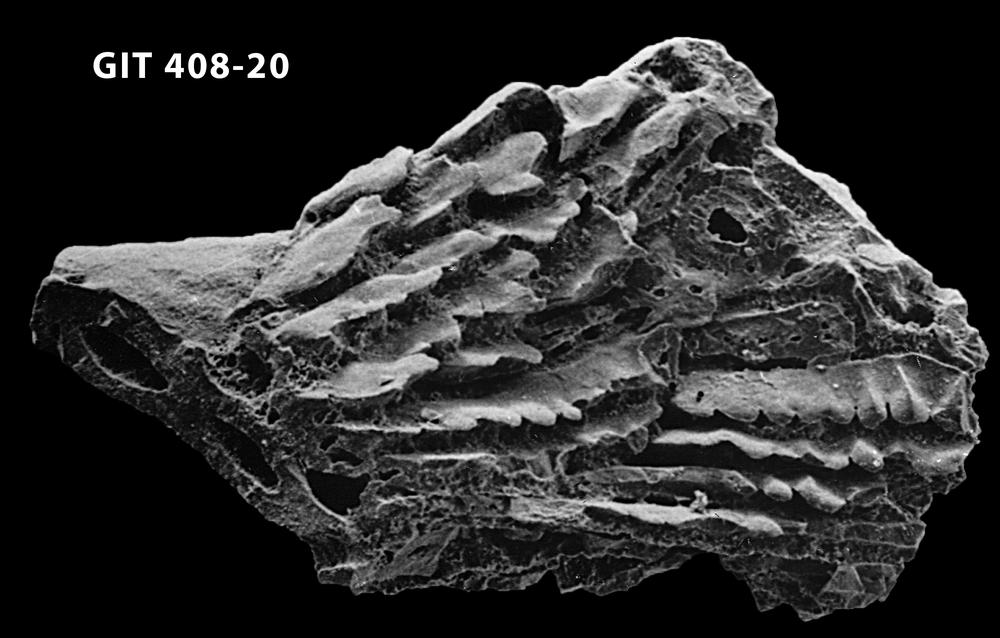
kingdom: Animalia
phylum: Chordata
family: Cyathaspididae
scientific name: Cyathaspididae
